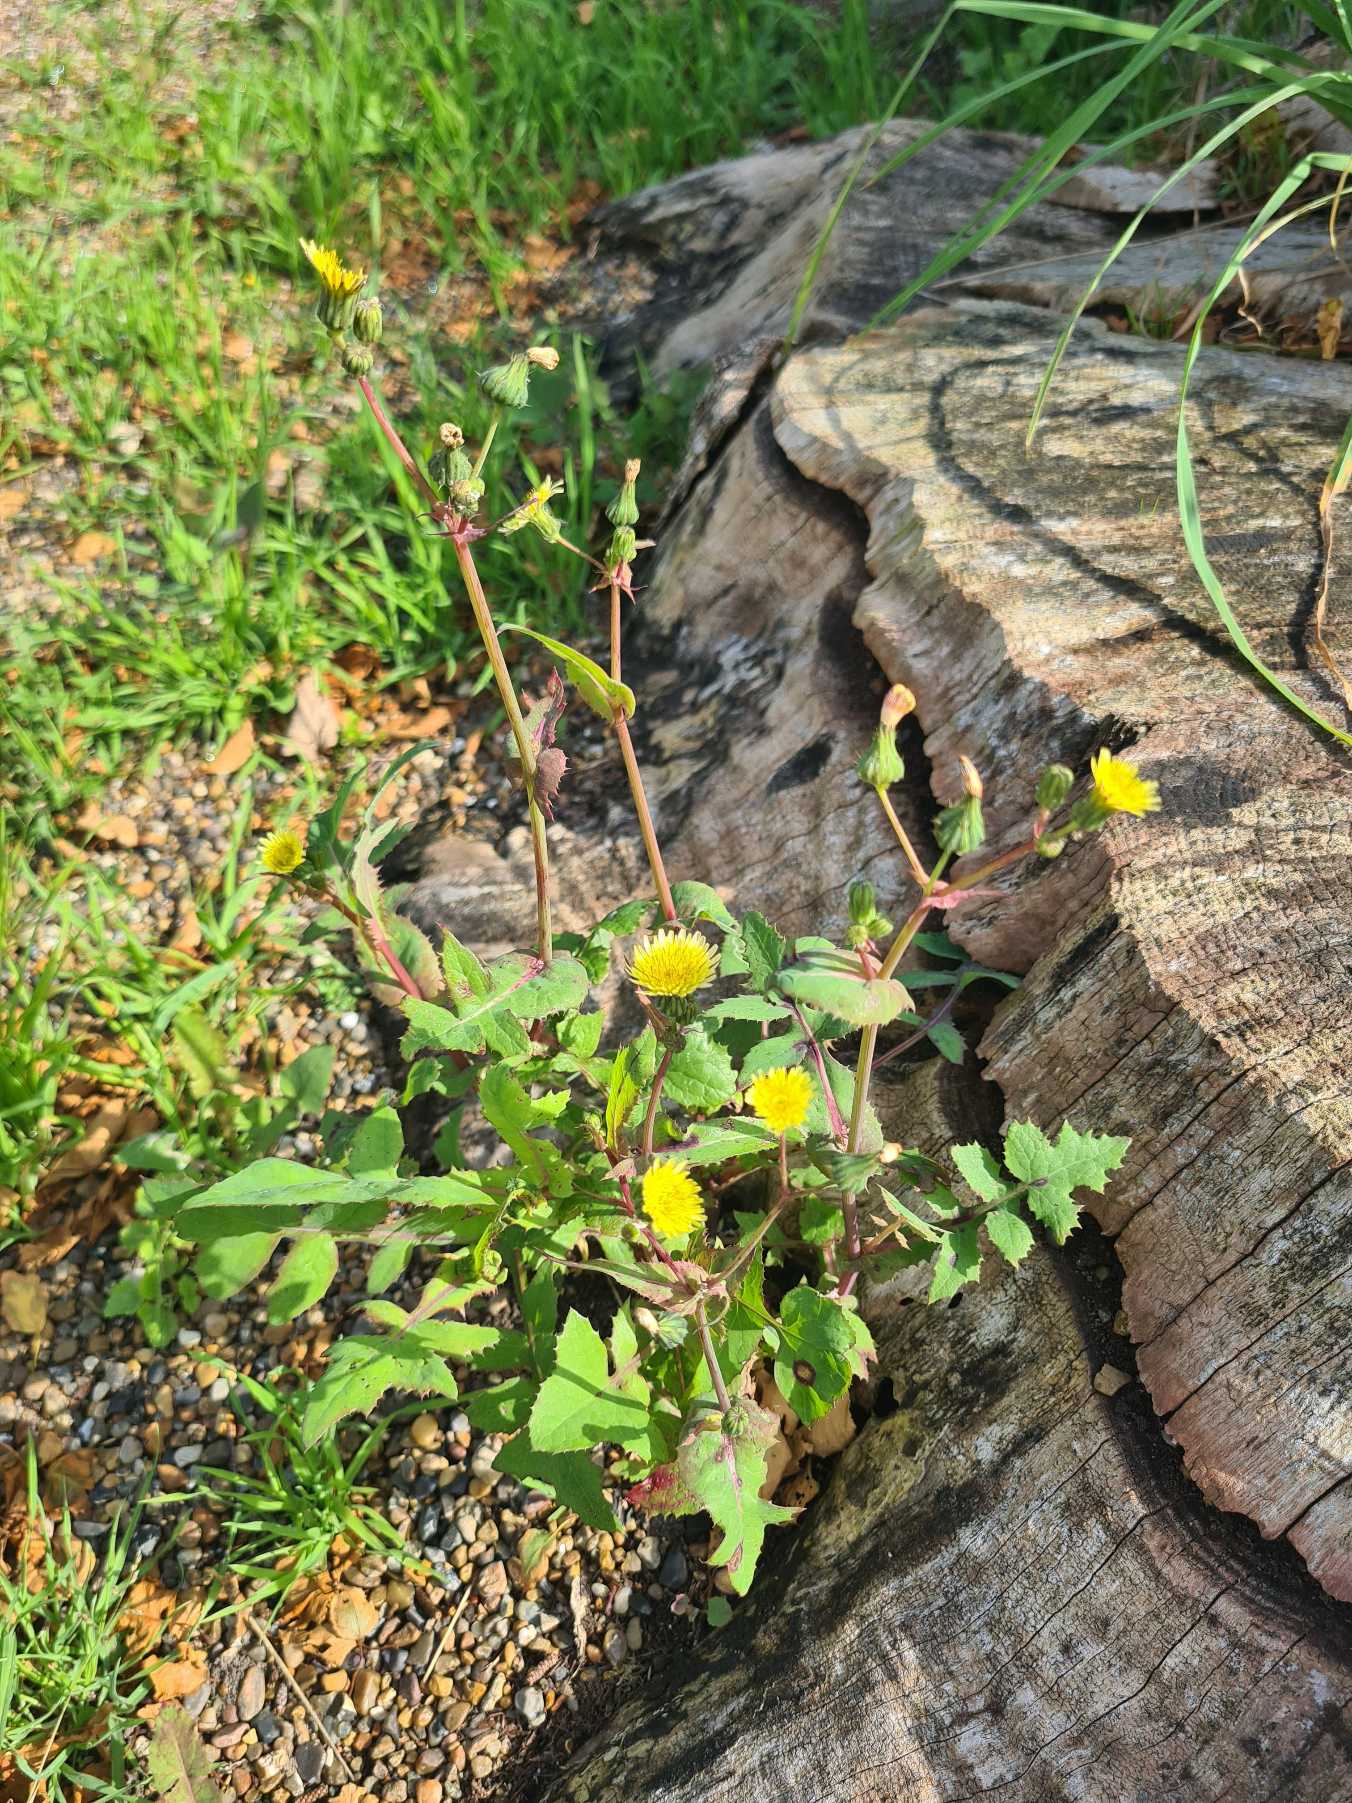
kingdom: Plantae
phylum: Tracheophyta
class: Magnoliopsida
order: Asterales
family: Asteraceae
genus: Sonchus
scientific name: Sonchus oleraceus
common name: Almindelig svinemælk
